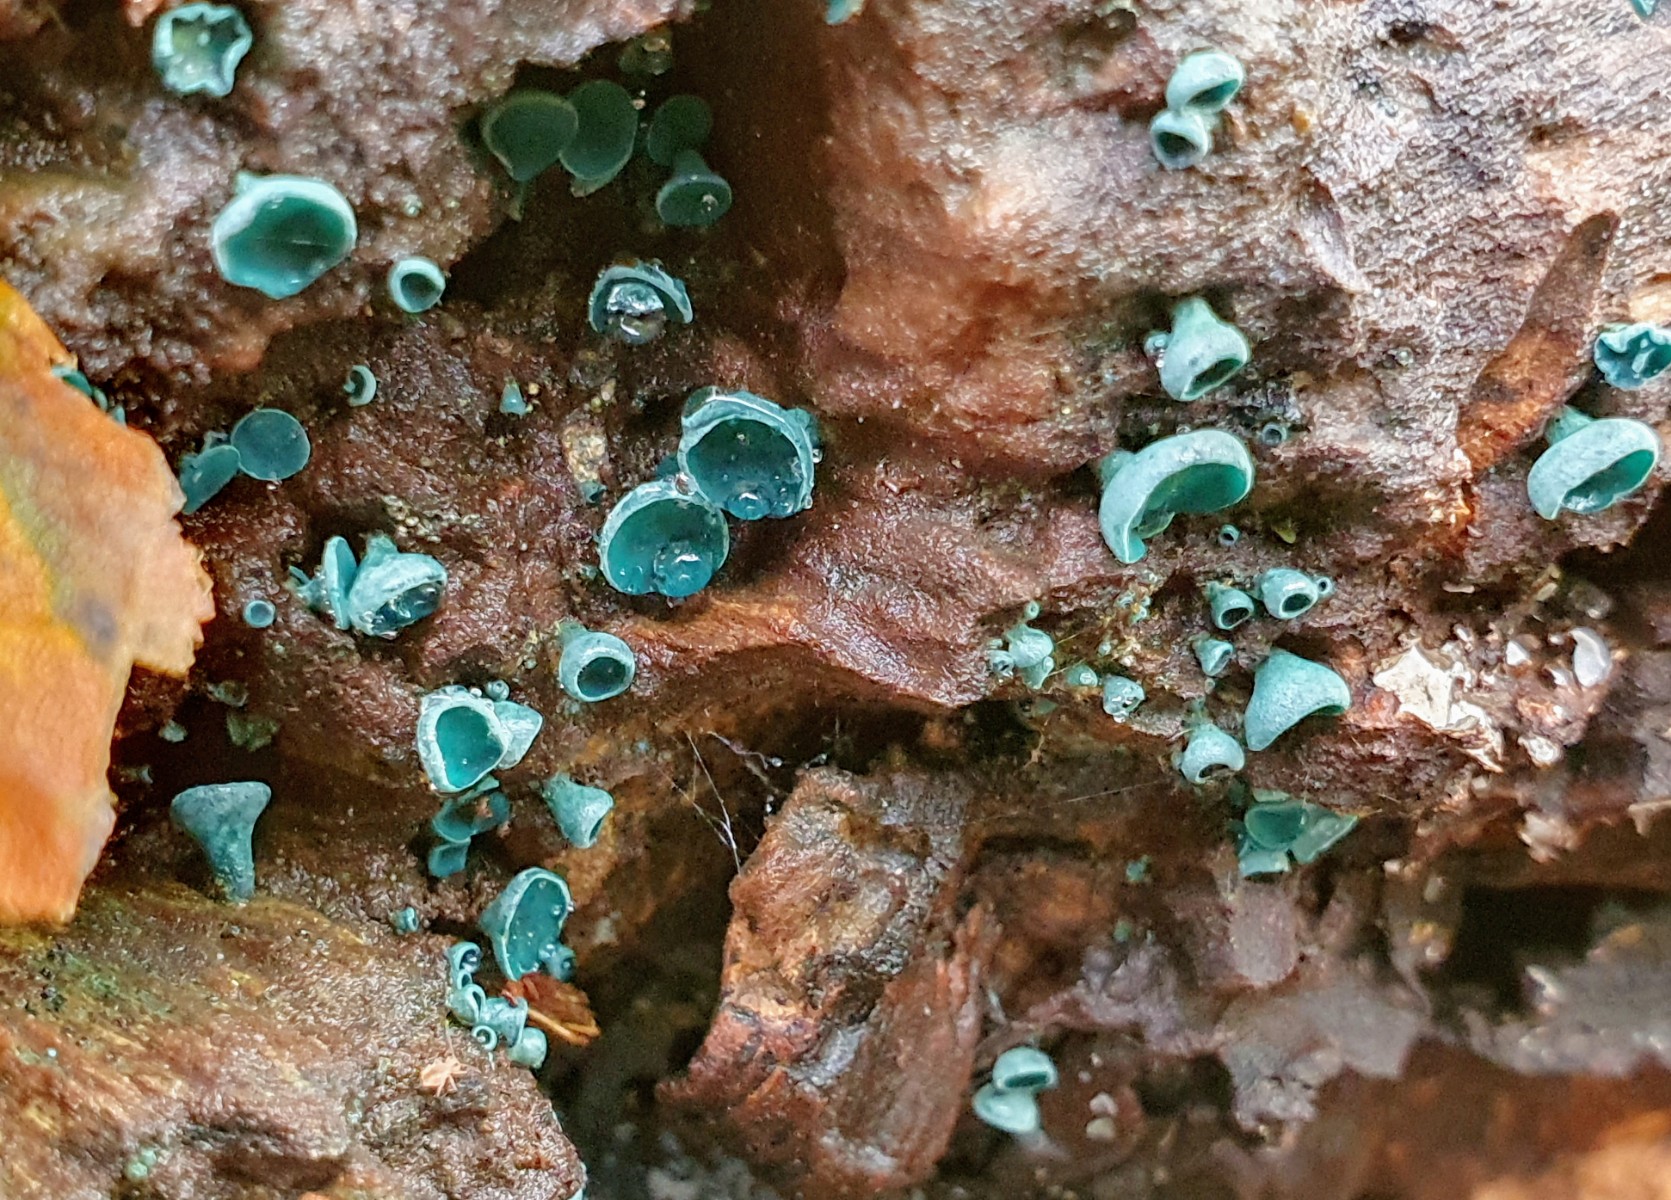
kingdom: Fungi
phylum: Ascomycota
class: Leotiomycetes
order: Helotiales
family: Chlorociboriaceae
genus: Chlorociboria
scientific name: Chlorociboria aeruginascens
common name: almindelig grønskive
